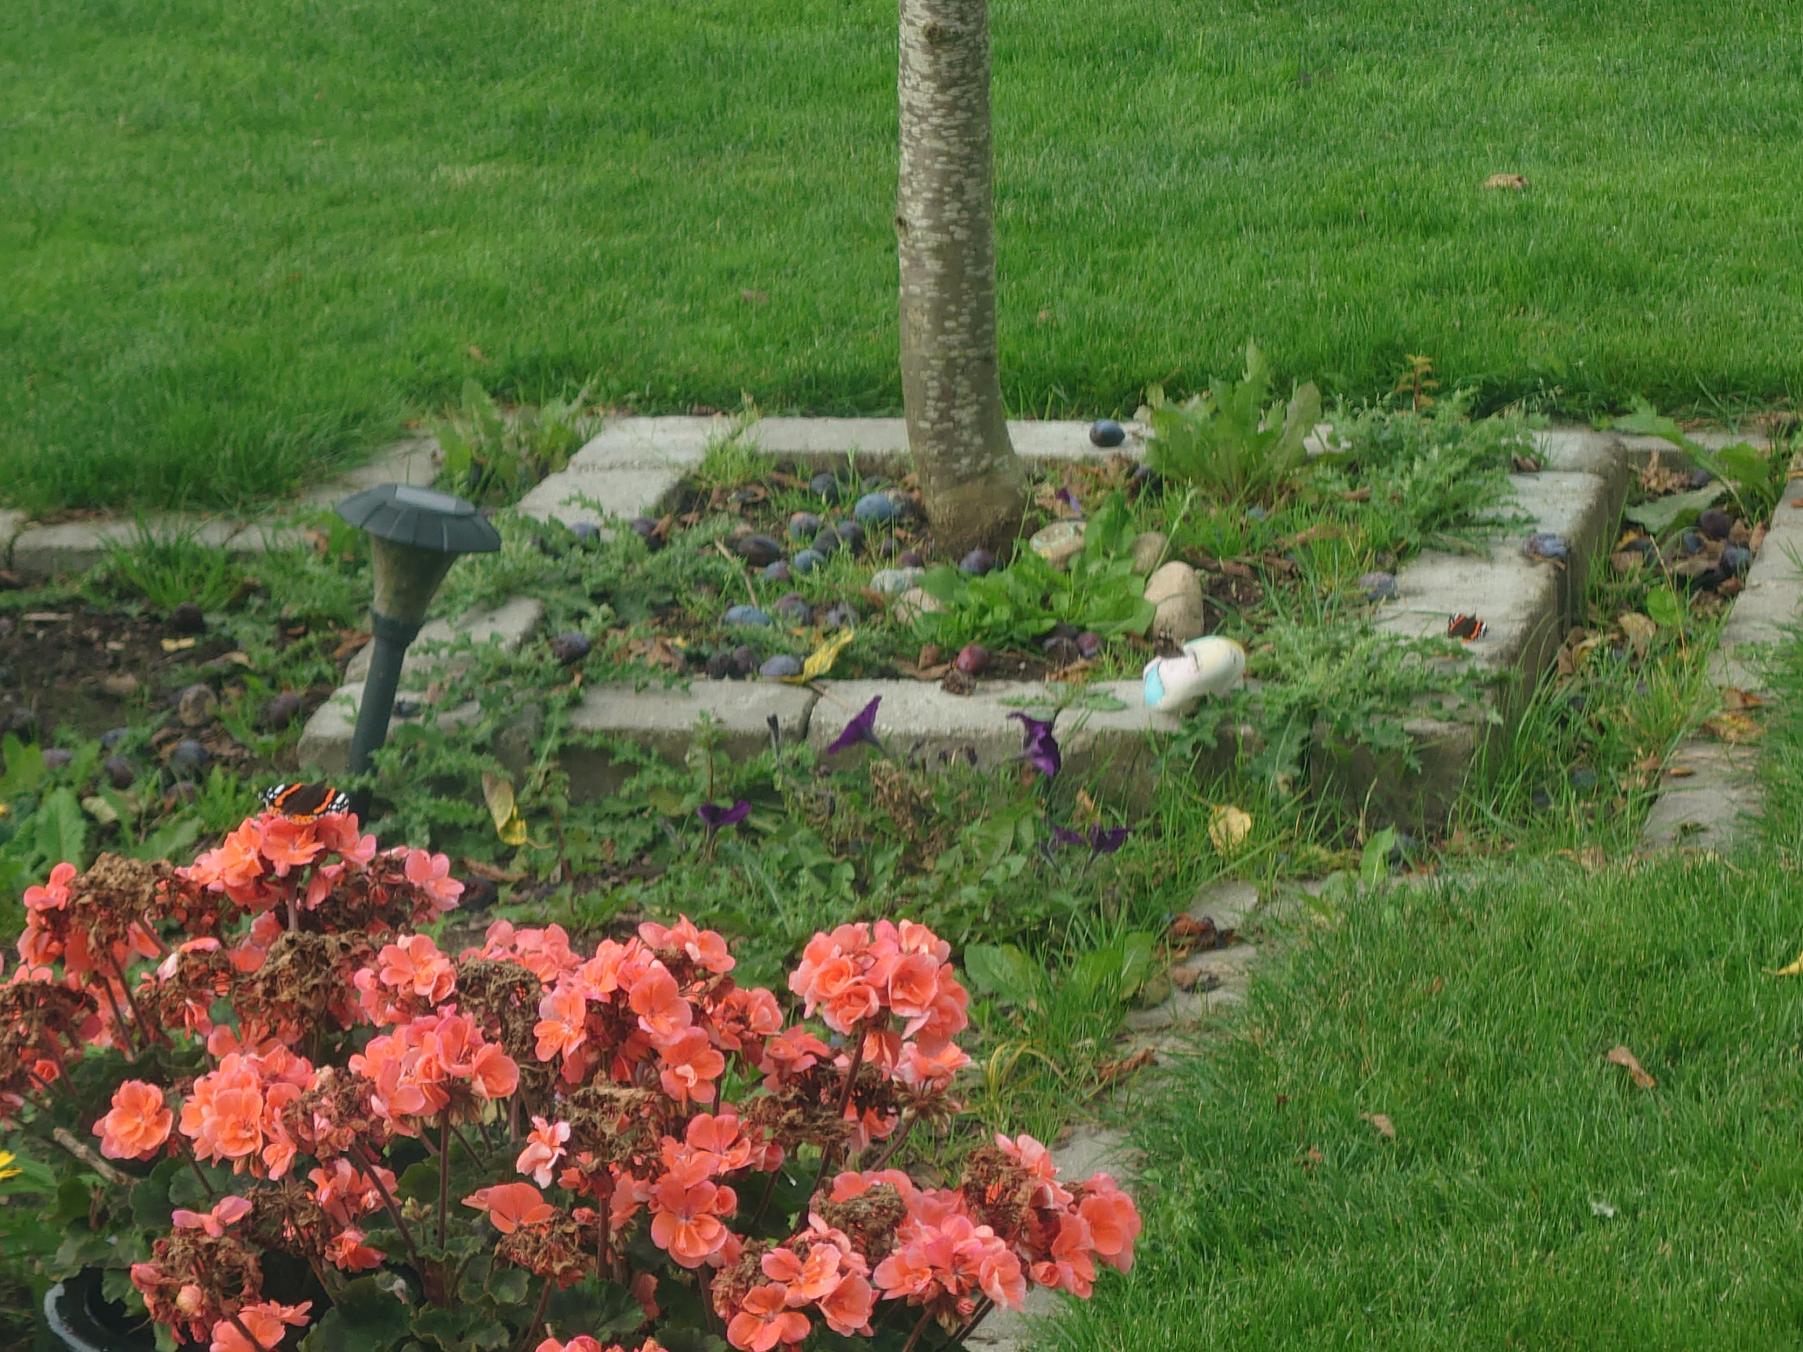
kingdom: Animalia
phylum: Arthropoda
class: Insecta
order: Lepidoptera
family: Nymphalidae
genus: Vanessa
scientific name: Vanessa atalanta
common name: Admiral
